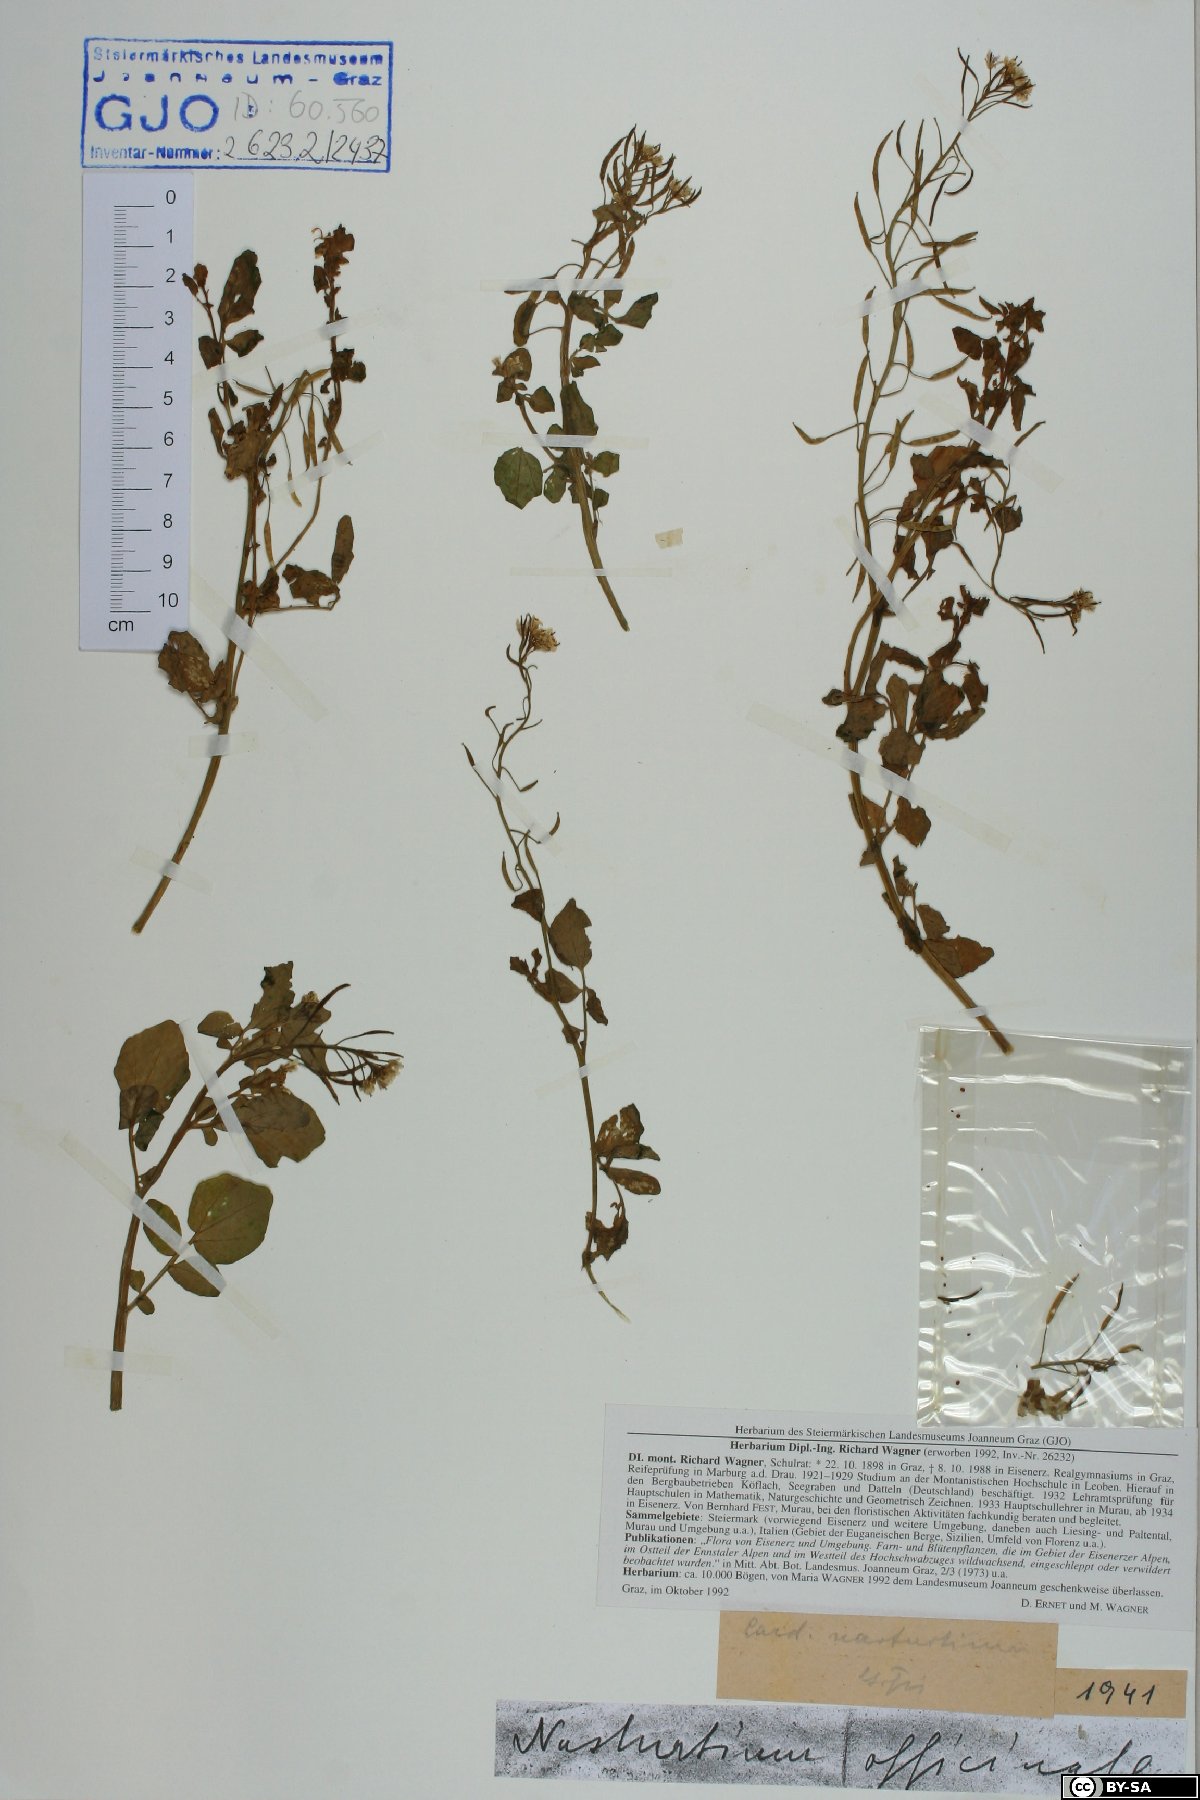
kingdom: Plantae
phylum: Tracheophyta
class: Magnoliopsida
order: Brassicales
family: Brassicaceae
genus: Nasturtium
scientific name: Nasturtium officinale
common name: Watercress
